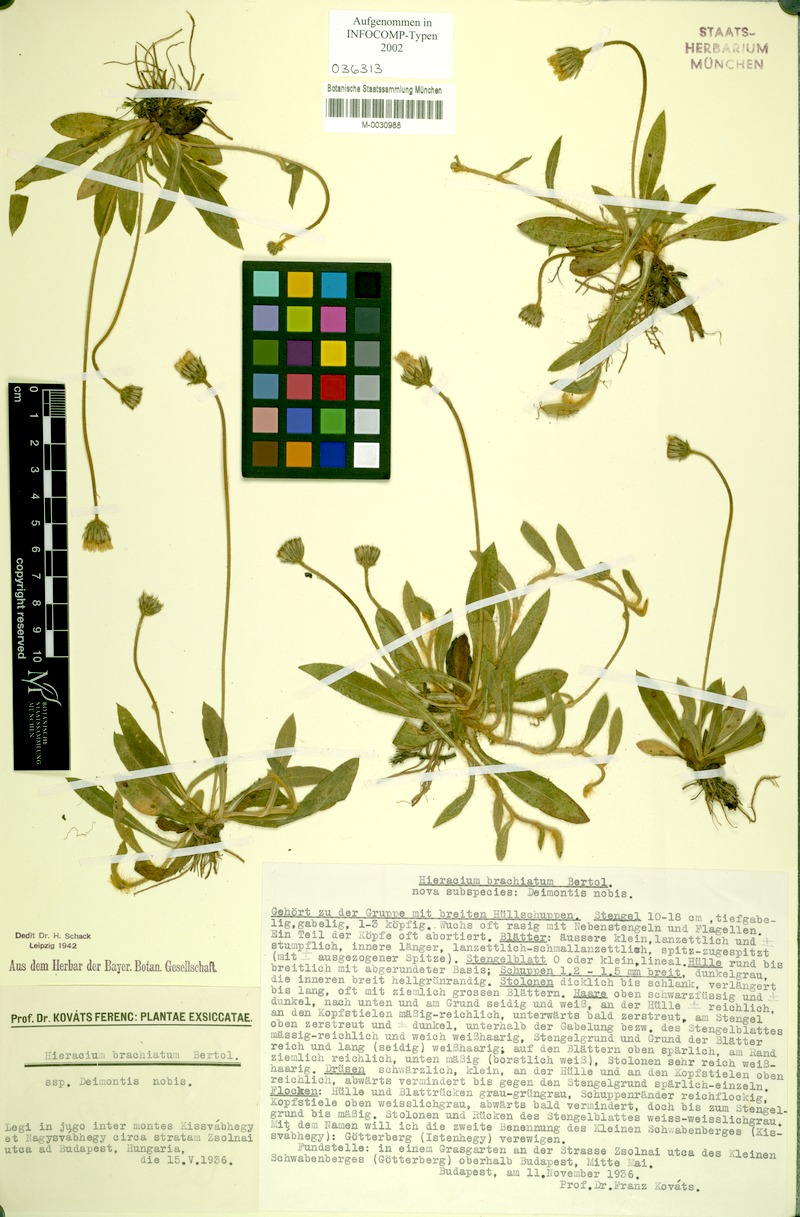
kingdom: Plantae
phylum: Tracheophyta
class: Magnoliopsida
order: Asterales
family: Asteraceae
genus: Pilosella
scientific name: Pilosella acutifolia
